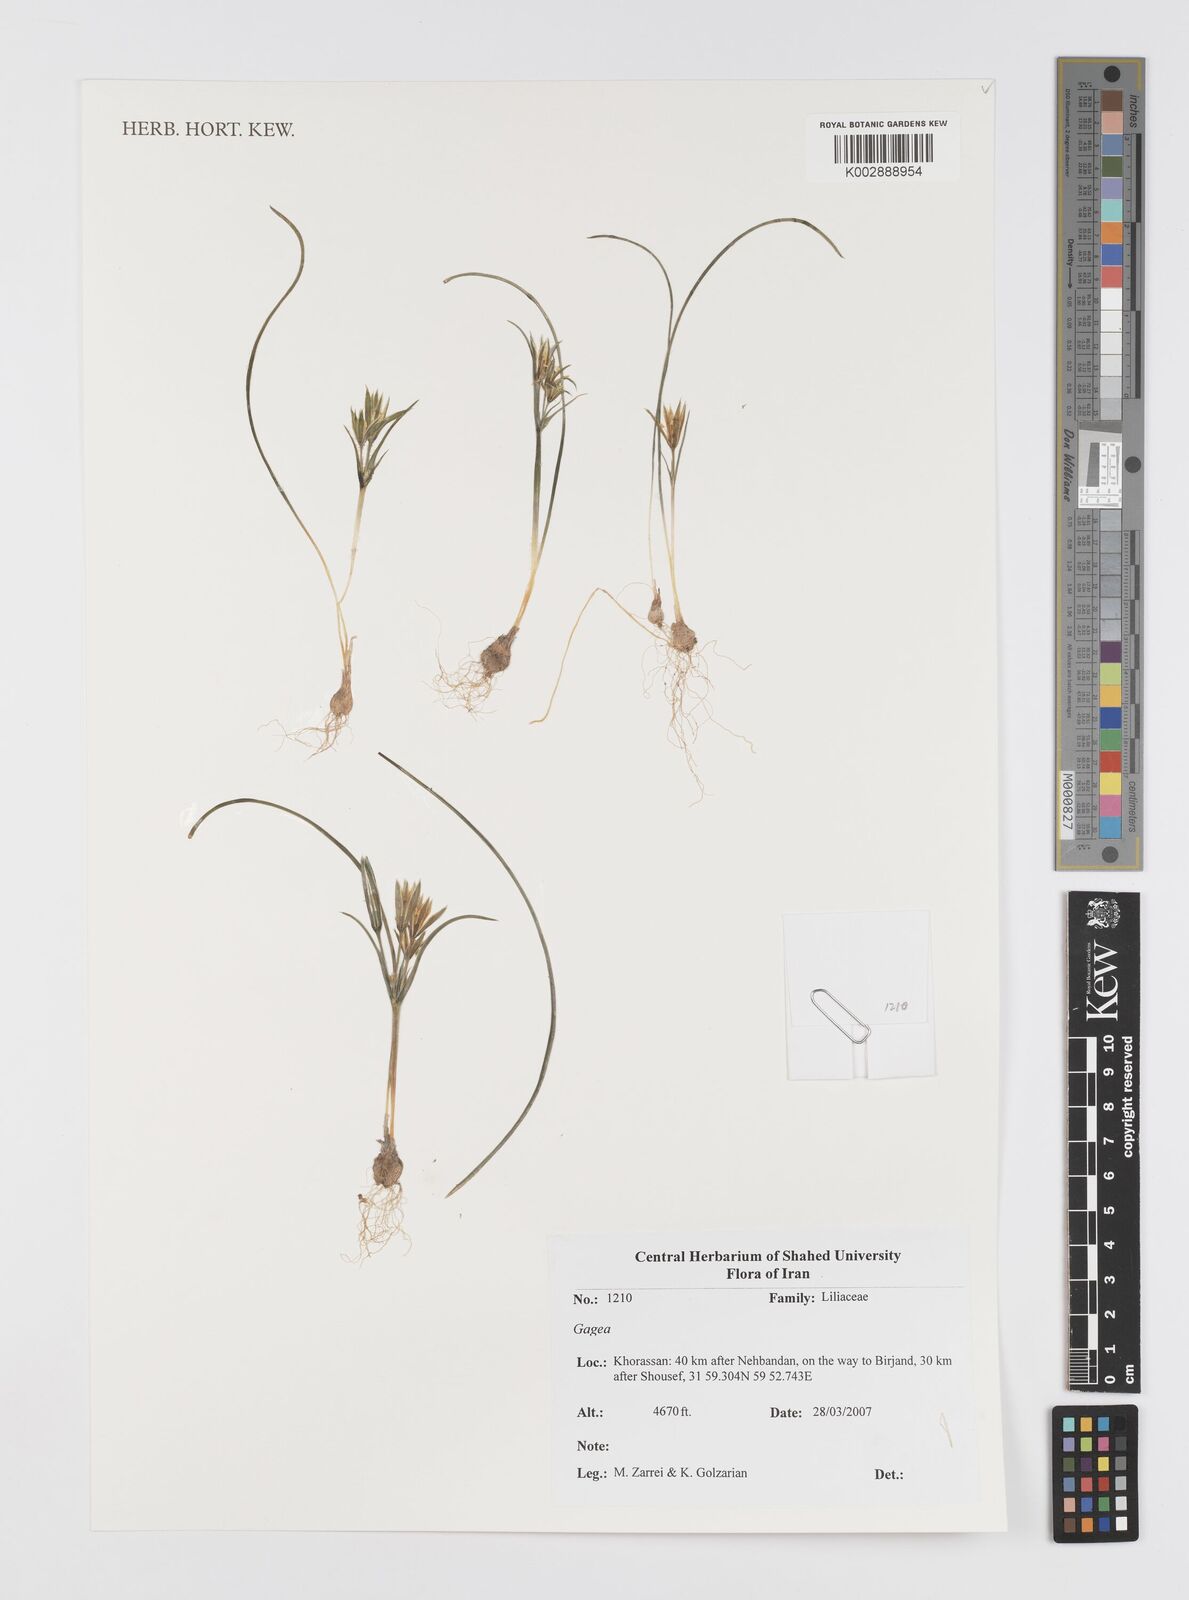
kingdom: Plantae
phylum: Tracheophyta
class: Liliopsida
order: Liliales
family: Liliaceae
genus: Gagea
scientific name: Gagea
